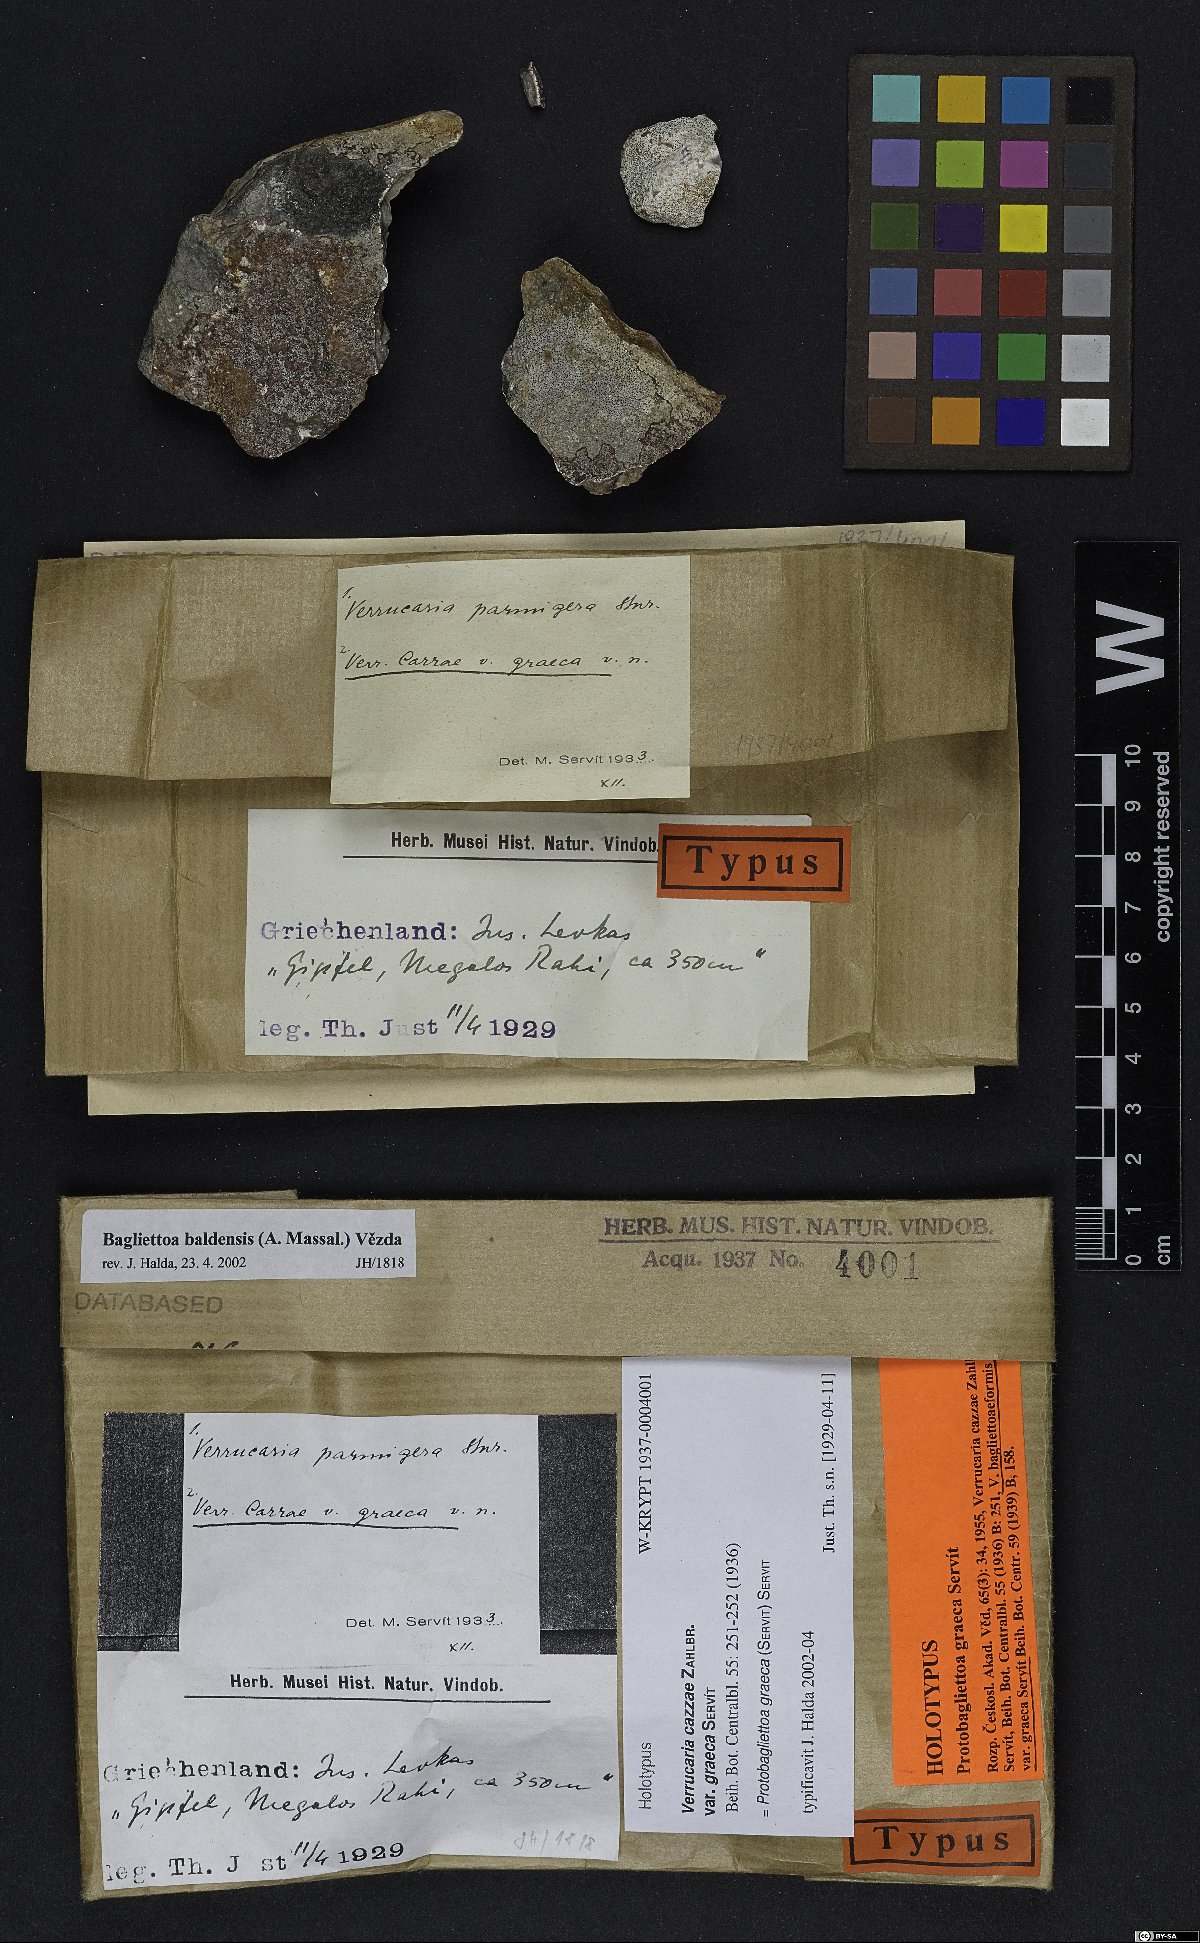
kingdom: Fungi
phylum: Ascomycota
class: Eurotiomycetes
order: Verrucariales
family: Verrucariaceae
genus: Bagliettoa
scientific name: Bagliettoa cazzae
